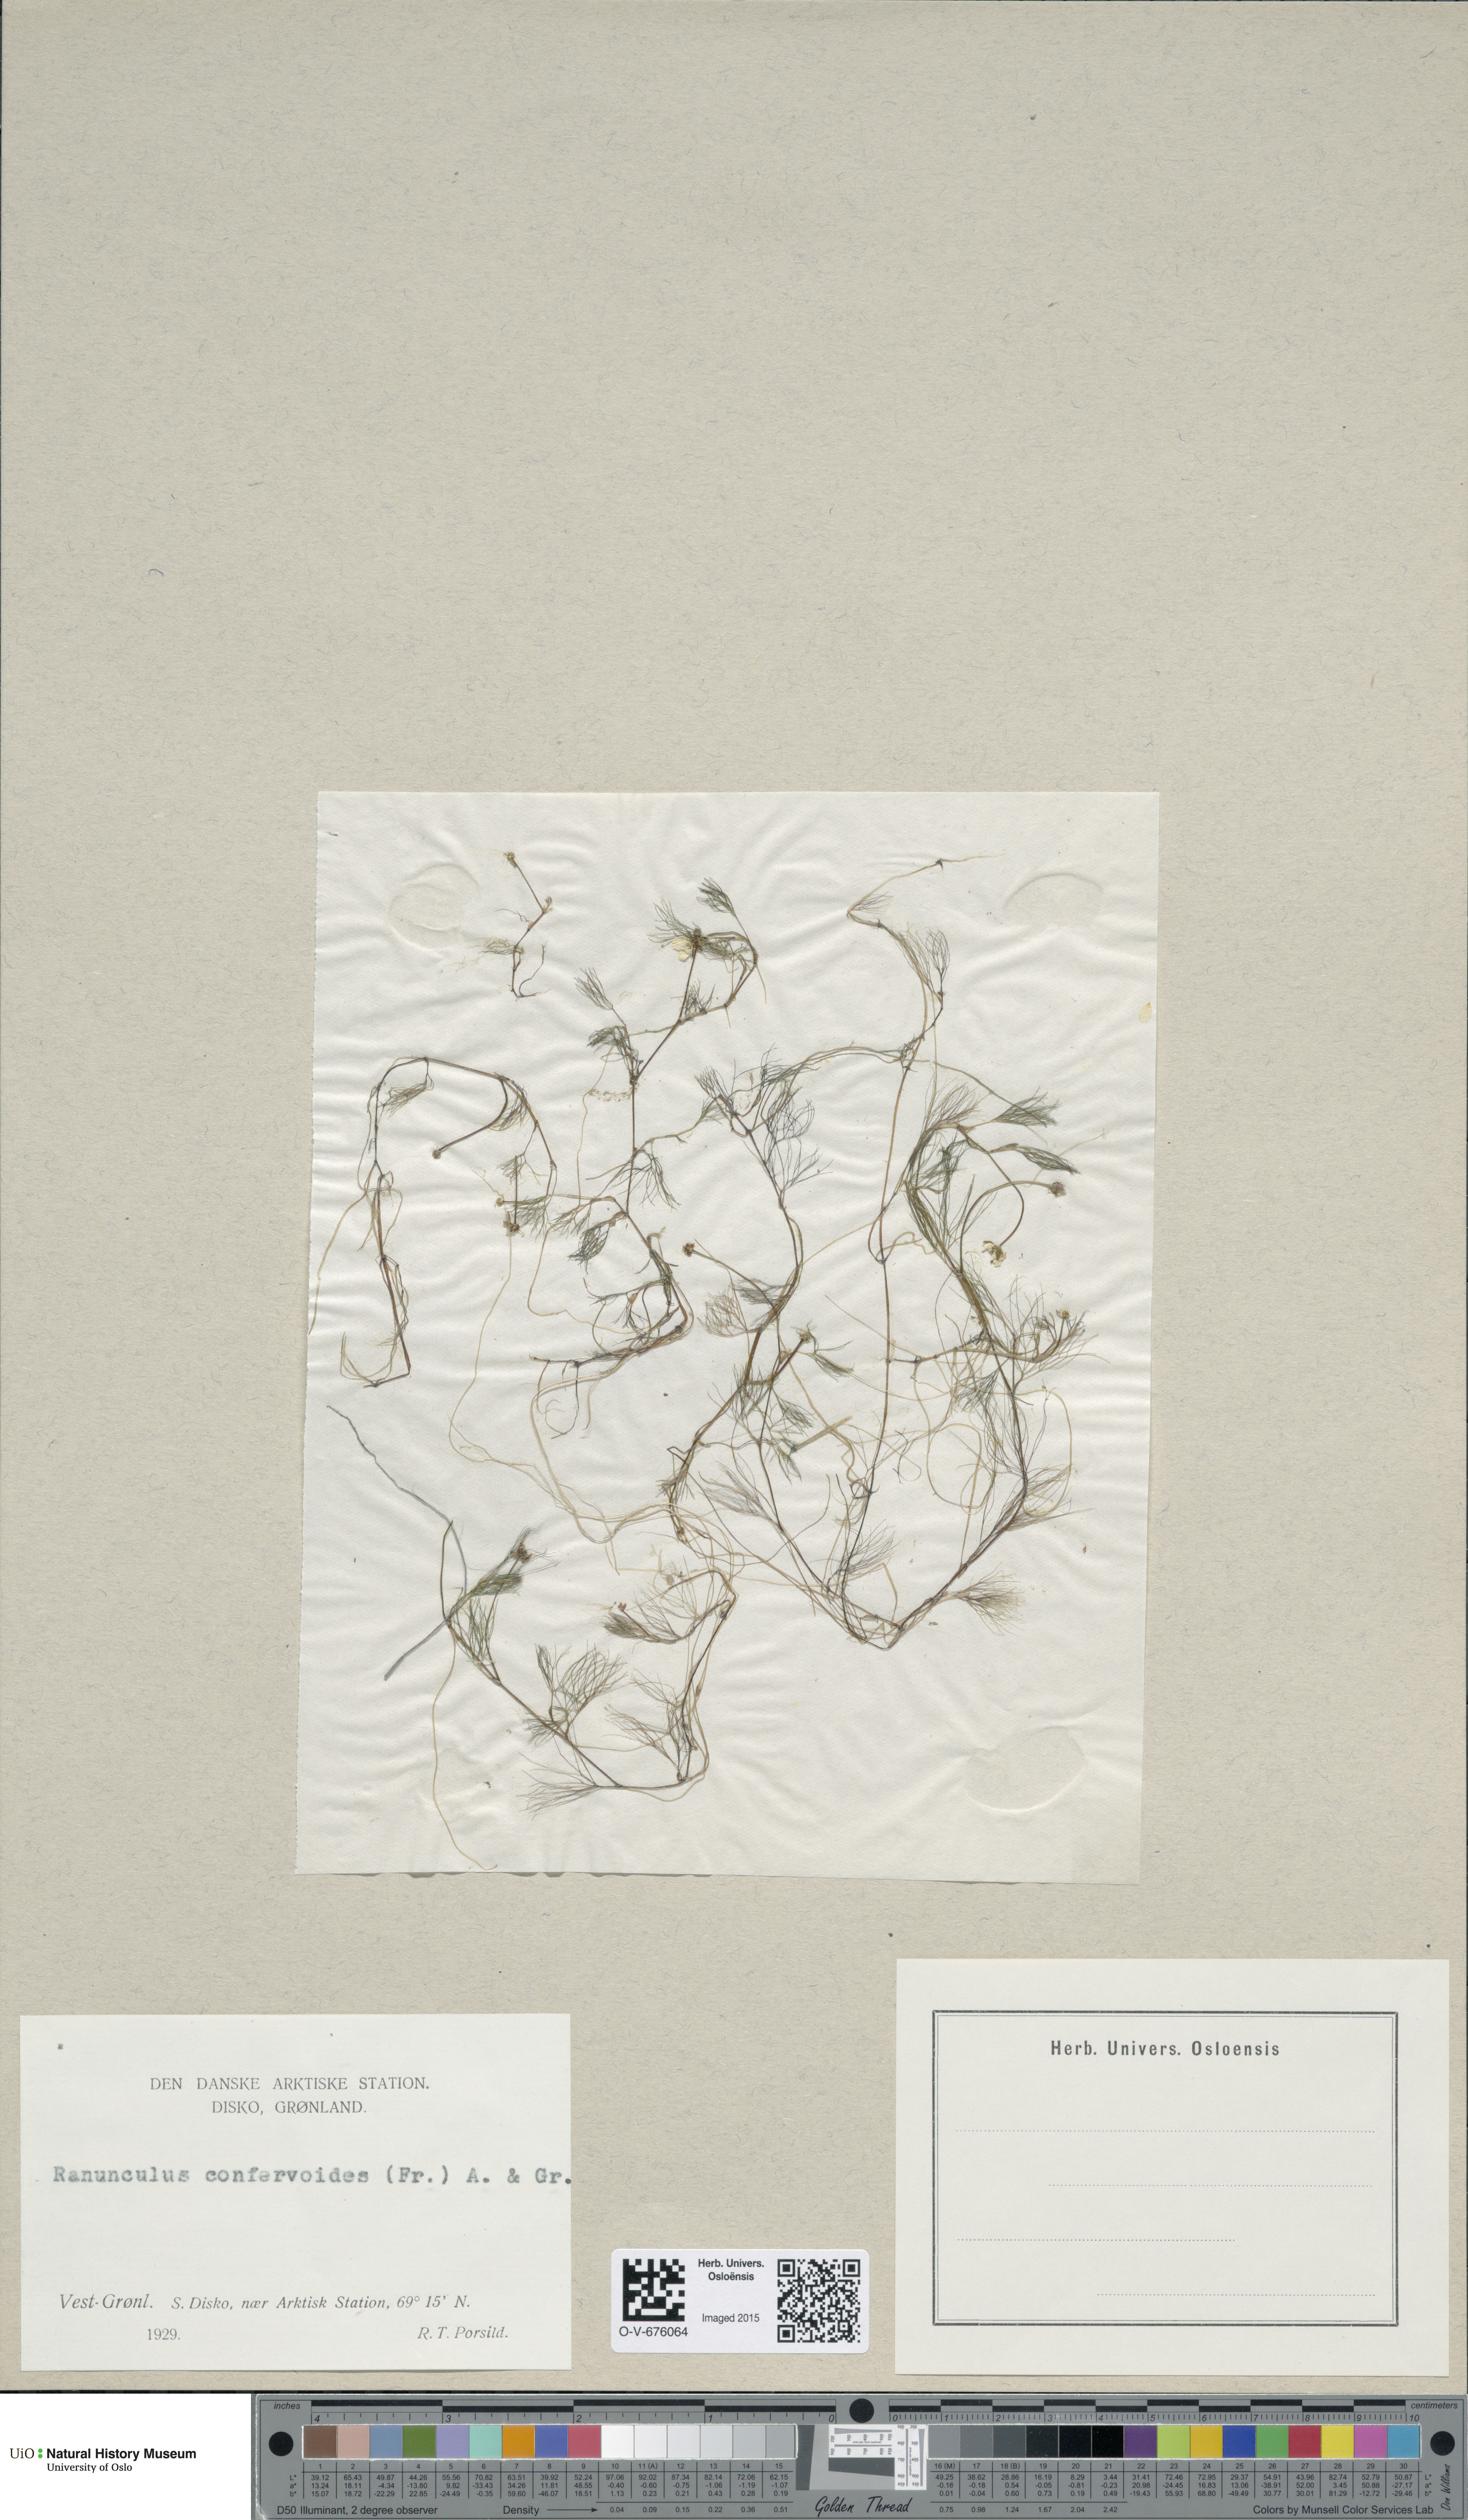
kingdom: Plantae
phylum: Tracheophyta
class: Magnoliopsida
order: Ranunculales
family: Ranunculaceae
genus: Ranunculus
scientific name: Ranunculus confervoides
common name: Delicate buttercup
